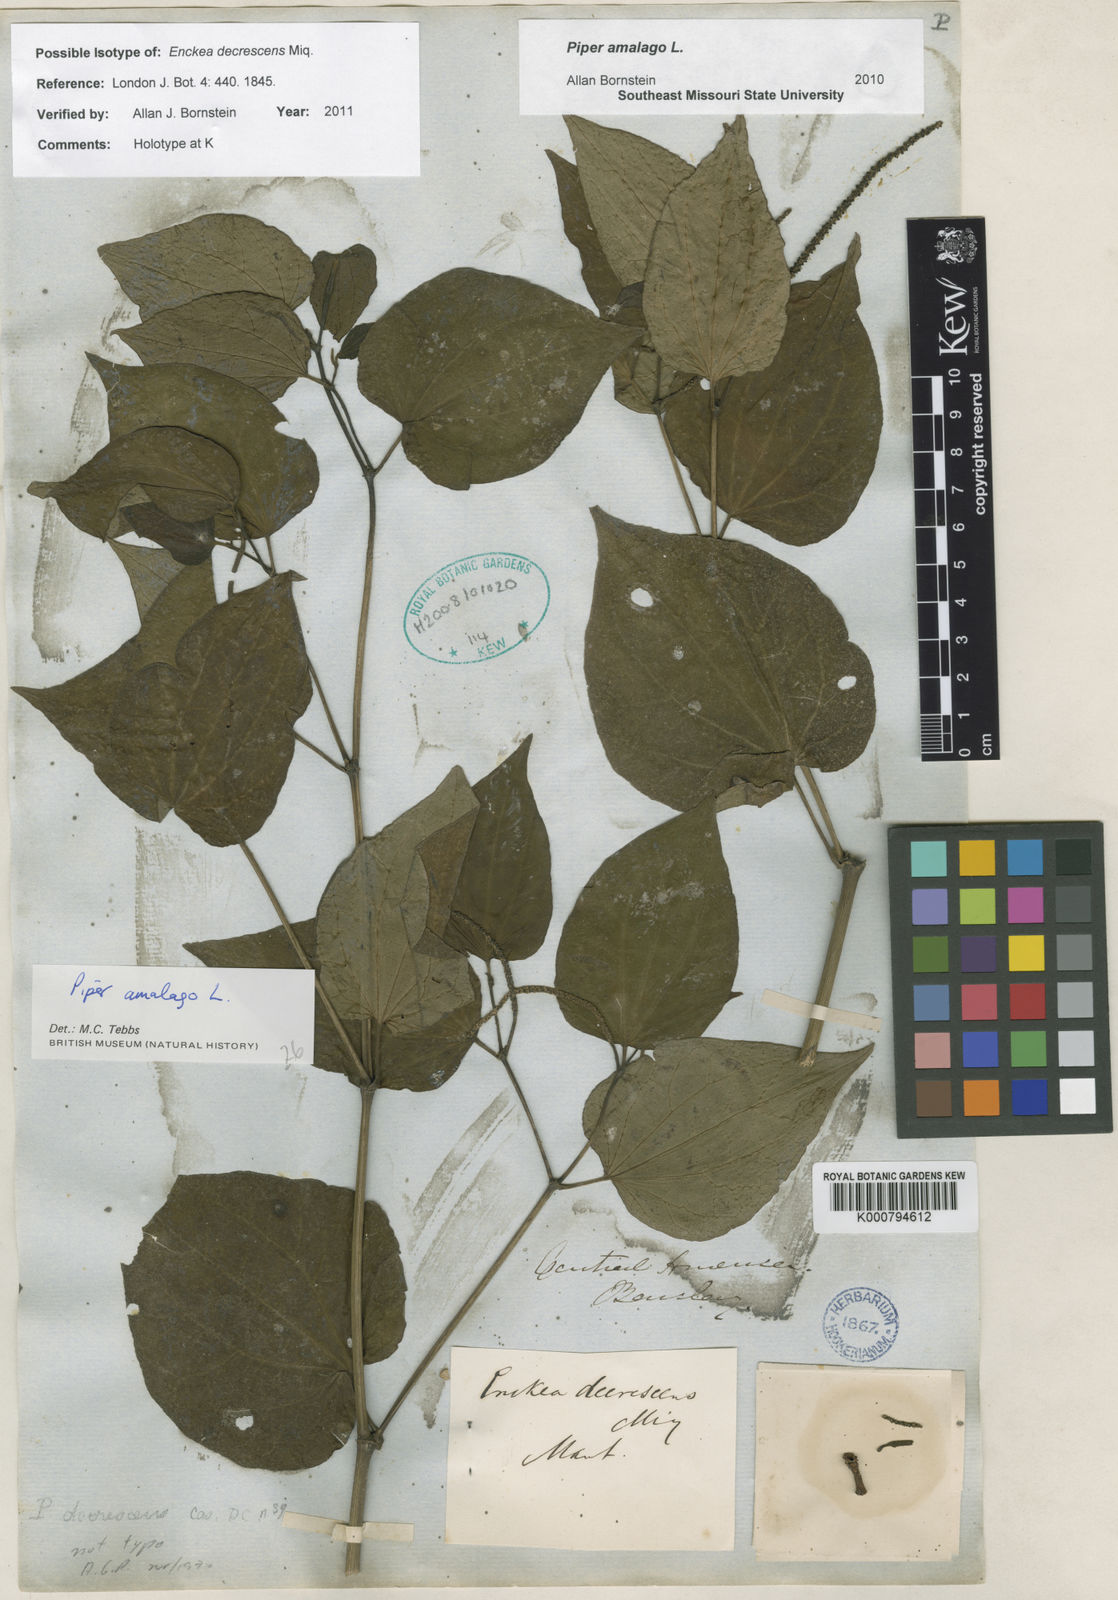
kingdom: Plantae
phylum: Tracheophyta
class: Magnoliopsida
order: Piperales
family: Piperaceae
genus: Piper
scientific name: Piper amalago
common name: Pepper-elder
